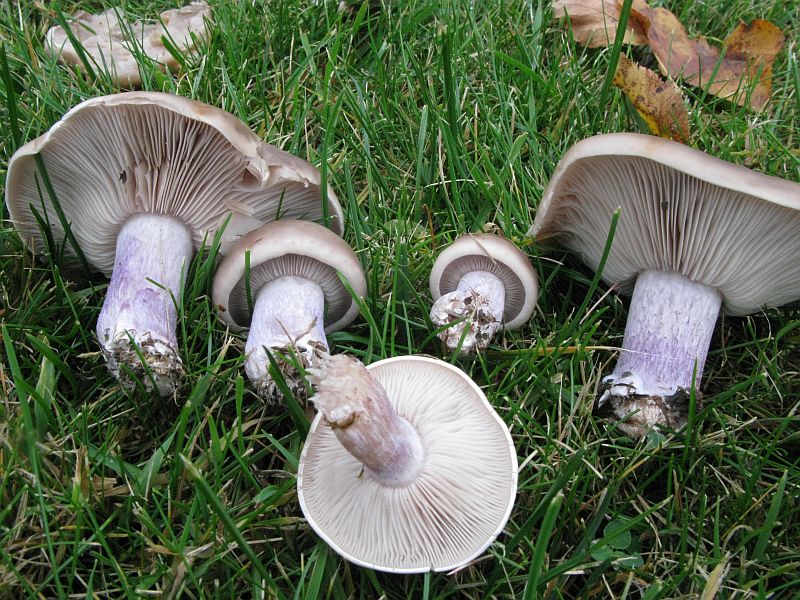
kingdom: Fungi
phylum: Basidiomycota
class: Agaricomycetes
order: Agaricales
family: Tricholomataceae
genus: Lepista
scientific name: Lepista personata
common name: bleg hekseringshat
